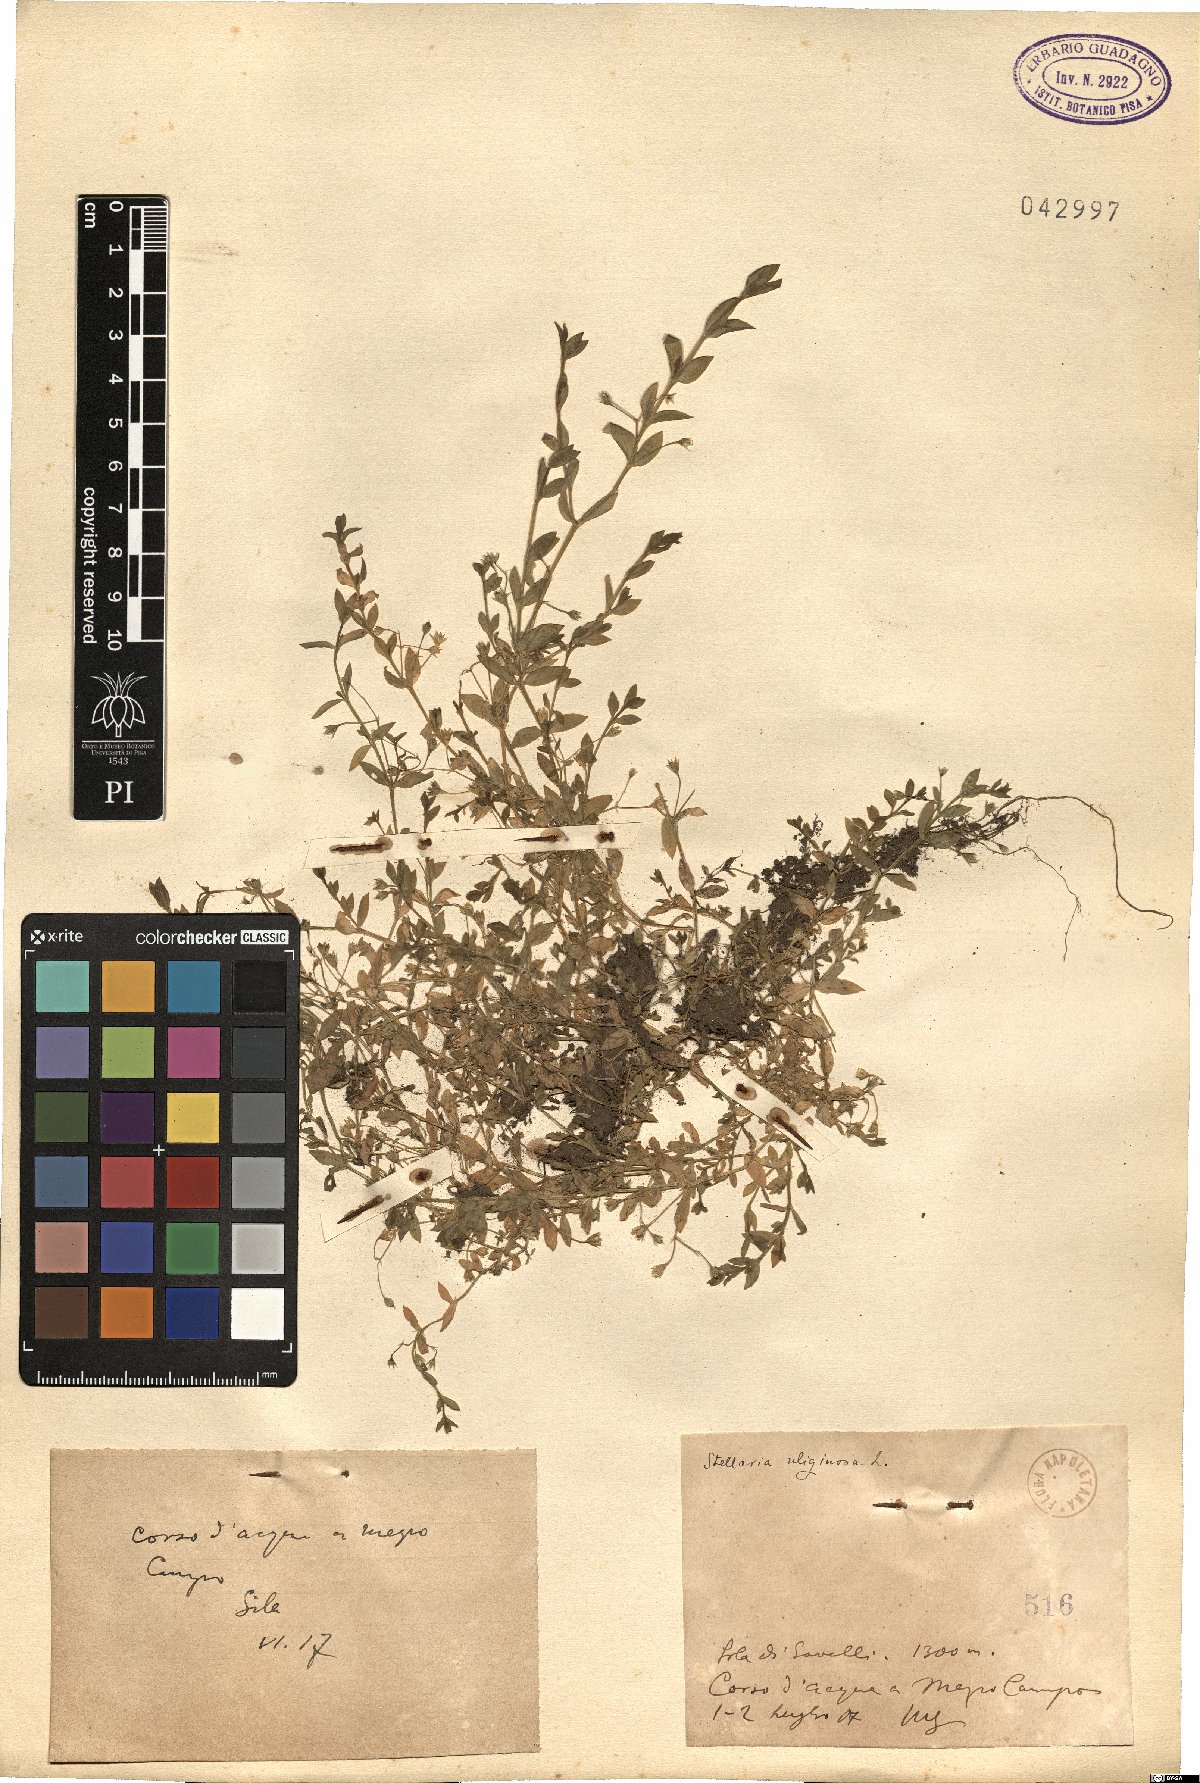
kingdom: Plantae
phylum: Tracheophyta
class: Magnoliopsida
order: Caryophyllales
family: Caryophyllaceae
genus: Stellaria
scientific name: Stellaria alsine
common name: Bog stitchwort
